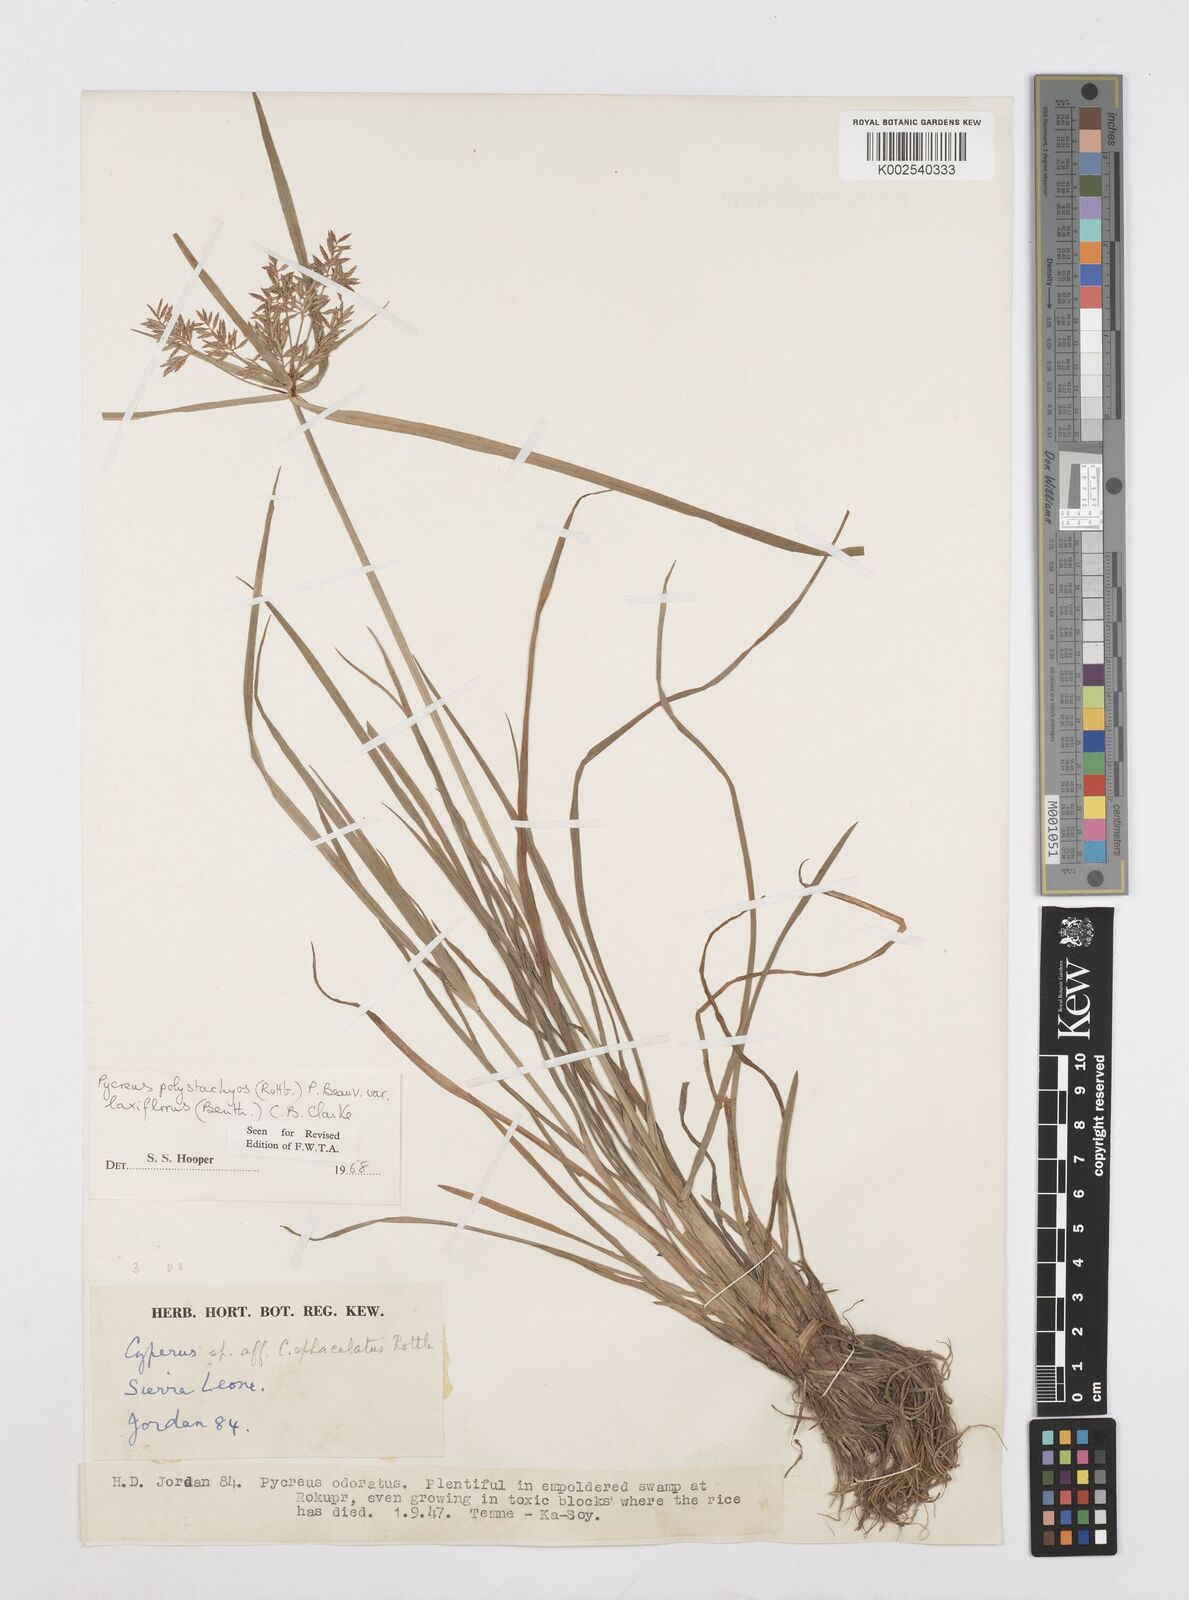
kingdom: Plantae
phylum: Tracheophyta
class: Liliopsida
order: Poales
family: Cyperaceae
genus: Cyperus
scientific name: Cyperus polystachyos
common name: Bunchy flat sedge
